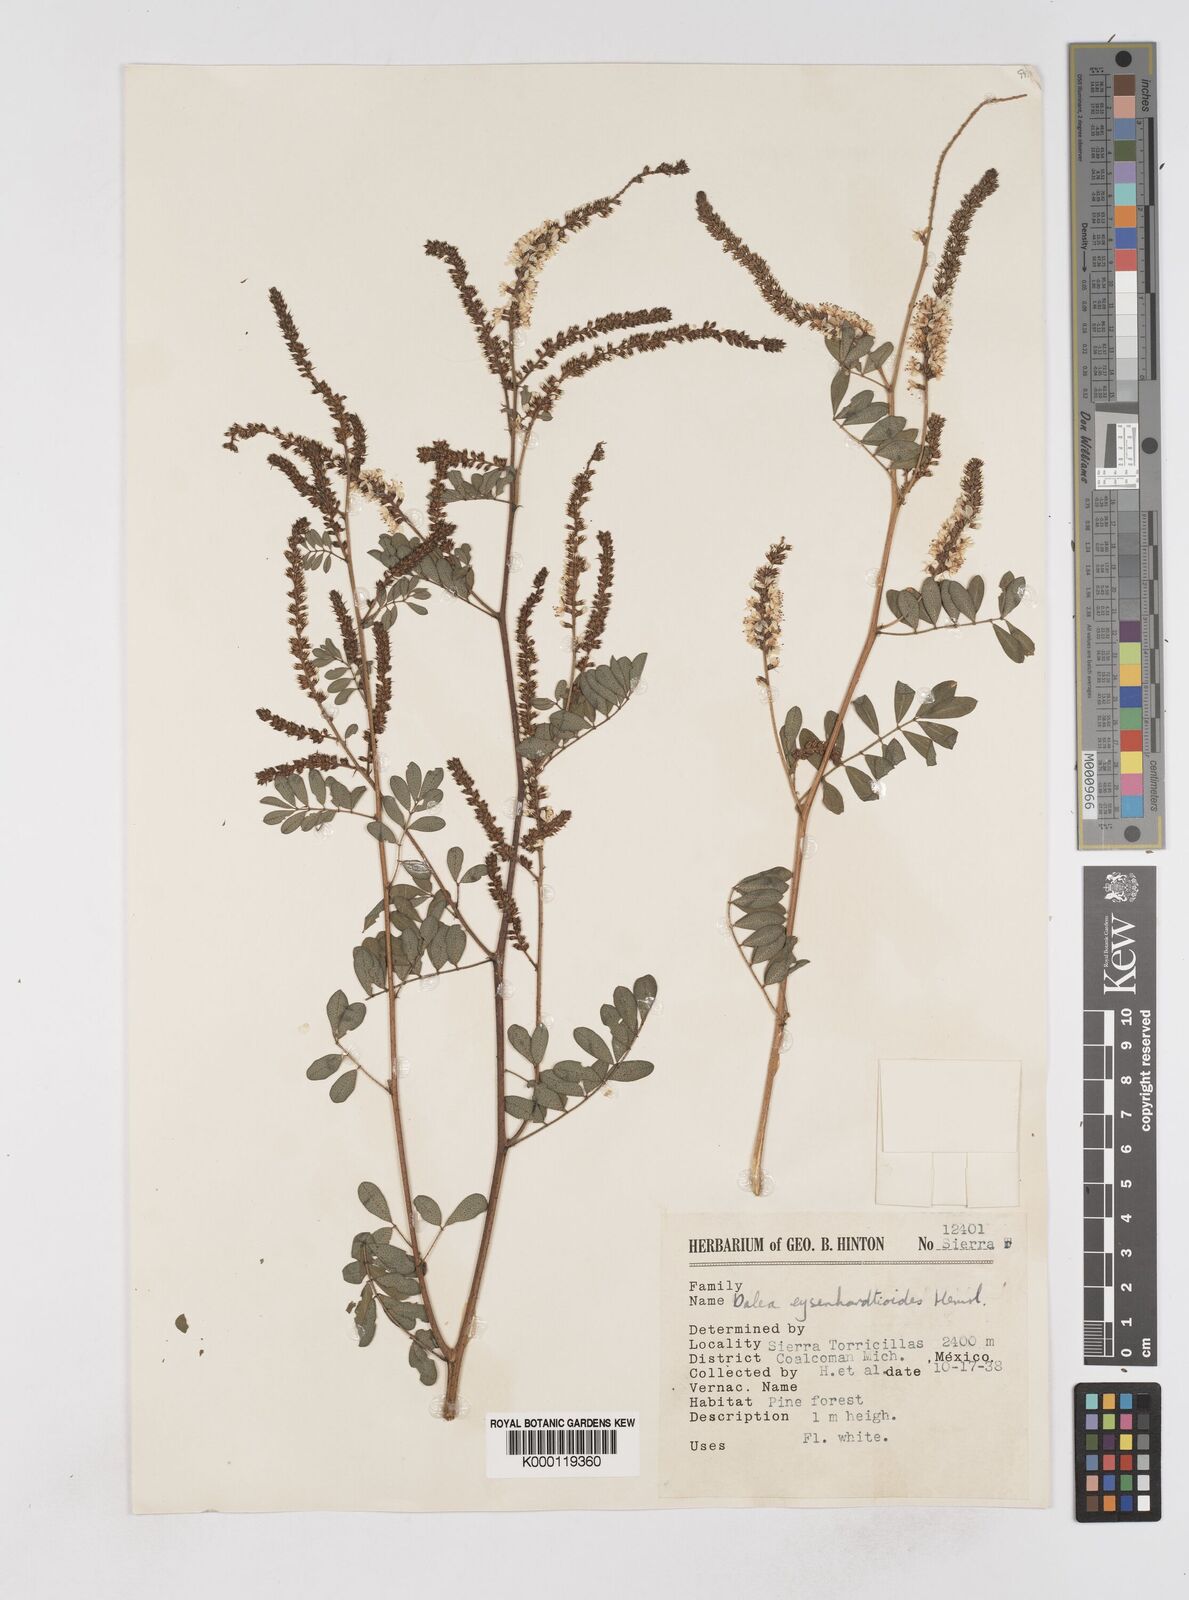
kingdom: Plantae
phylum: Tracheophyta
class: Magnoliopsida
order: Fabales
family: Fabaceae
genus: Dalea
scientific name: Dalea
